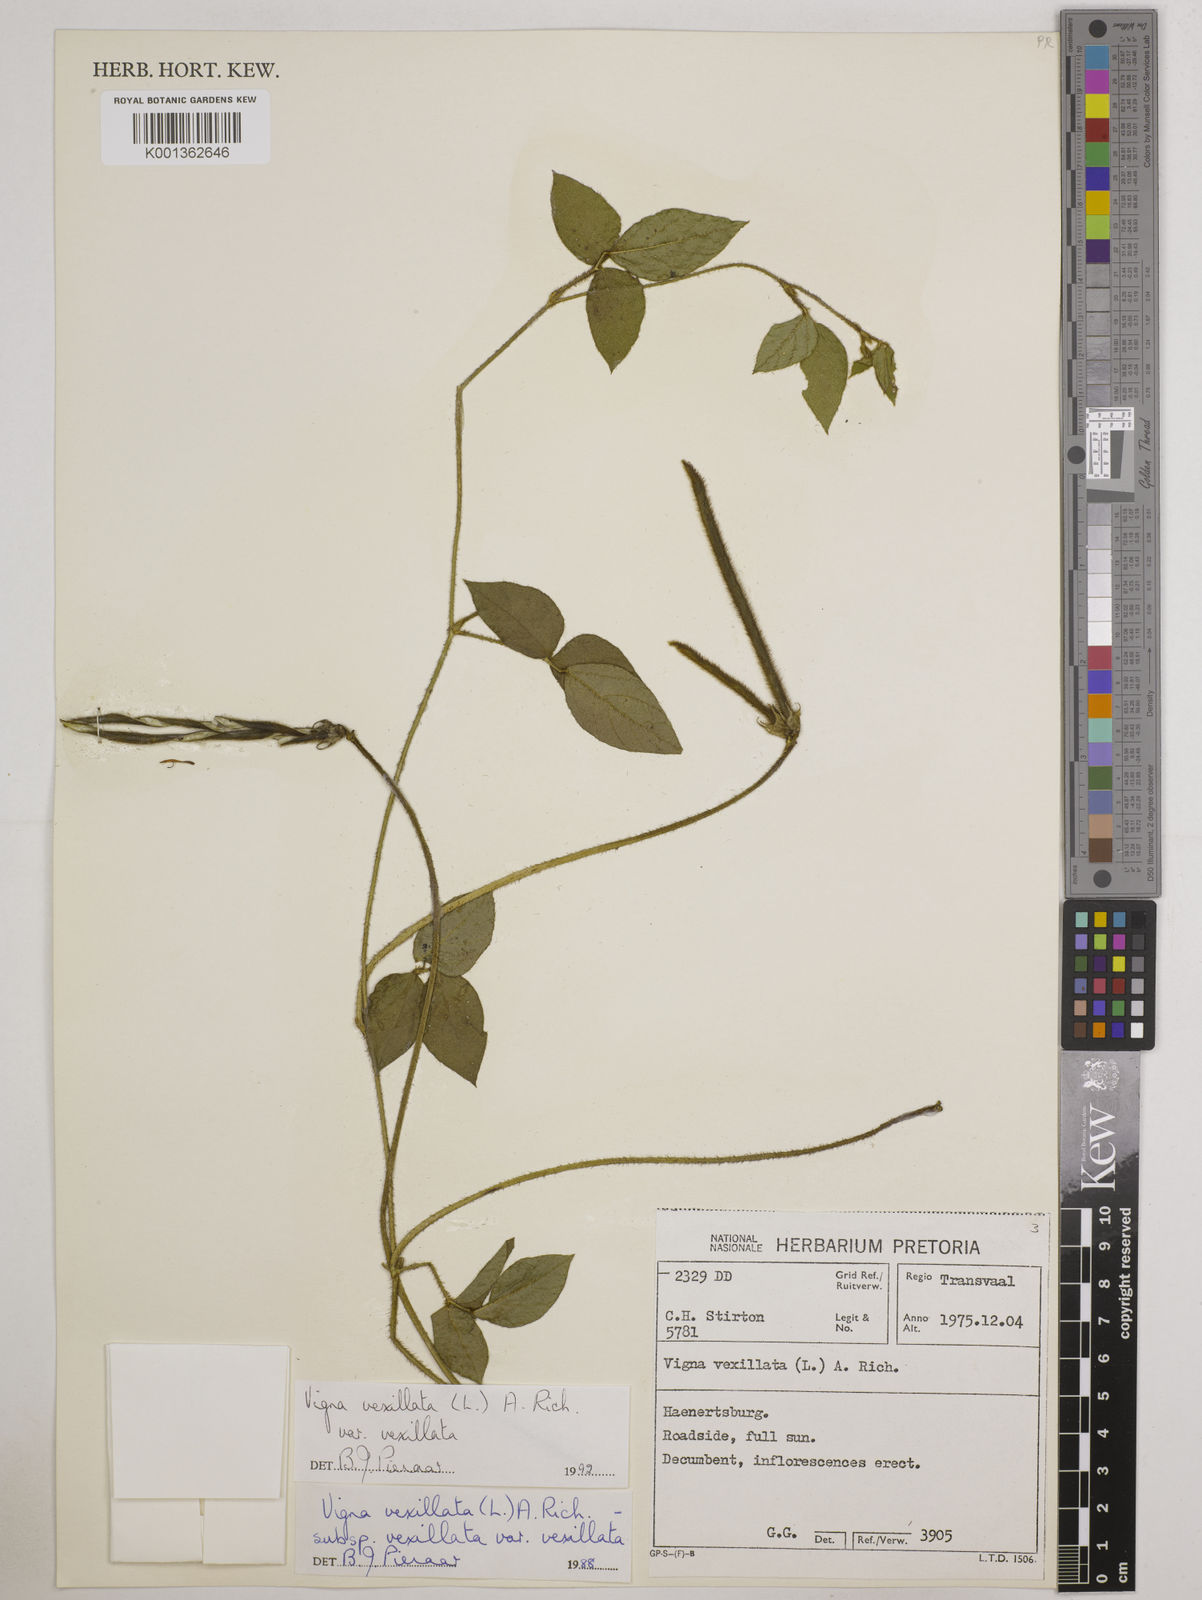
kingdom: Plantae
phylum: Tracheophyta
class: Magnoliopsida
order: Fabales
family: Fabaceae
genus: Vigna
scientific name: Vigna vexillata
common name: Zombi pea
